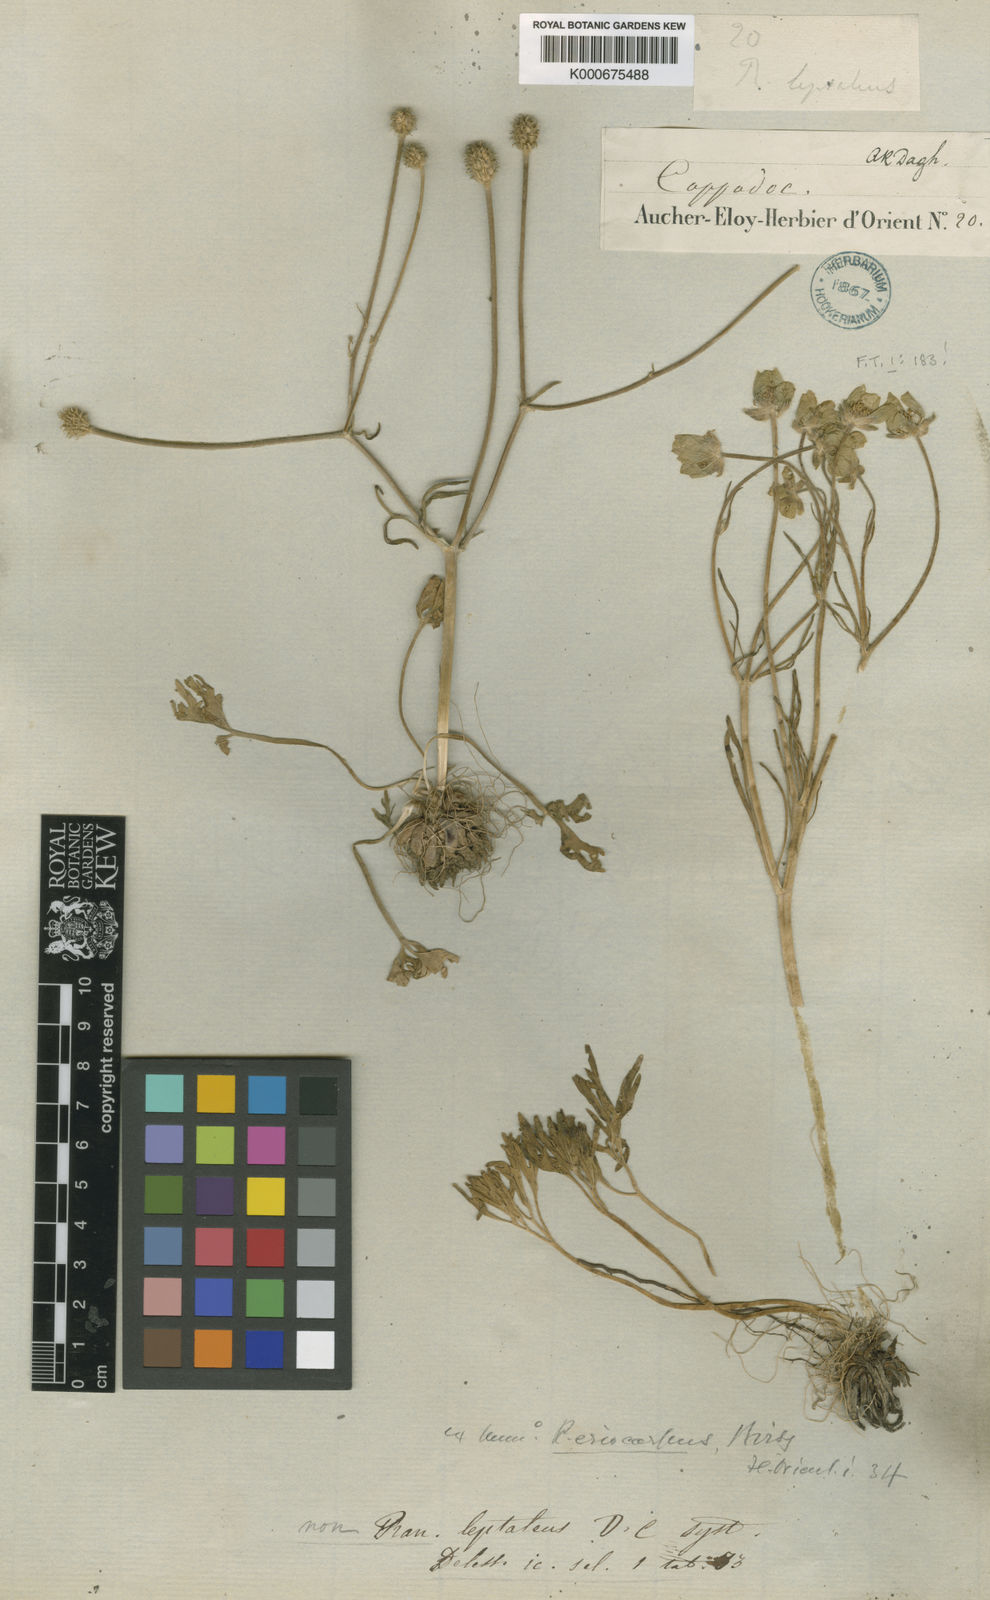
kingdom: Plantae
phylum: Tracheophyta
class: Magnoliopsida
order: Ranunculales
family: Ranunculaceae
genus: Ranunculus
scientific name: Ranunculus aucheri
